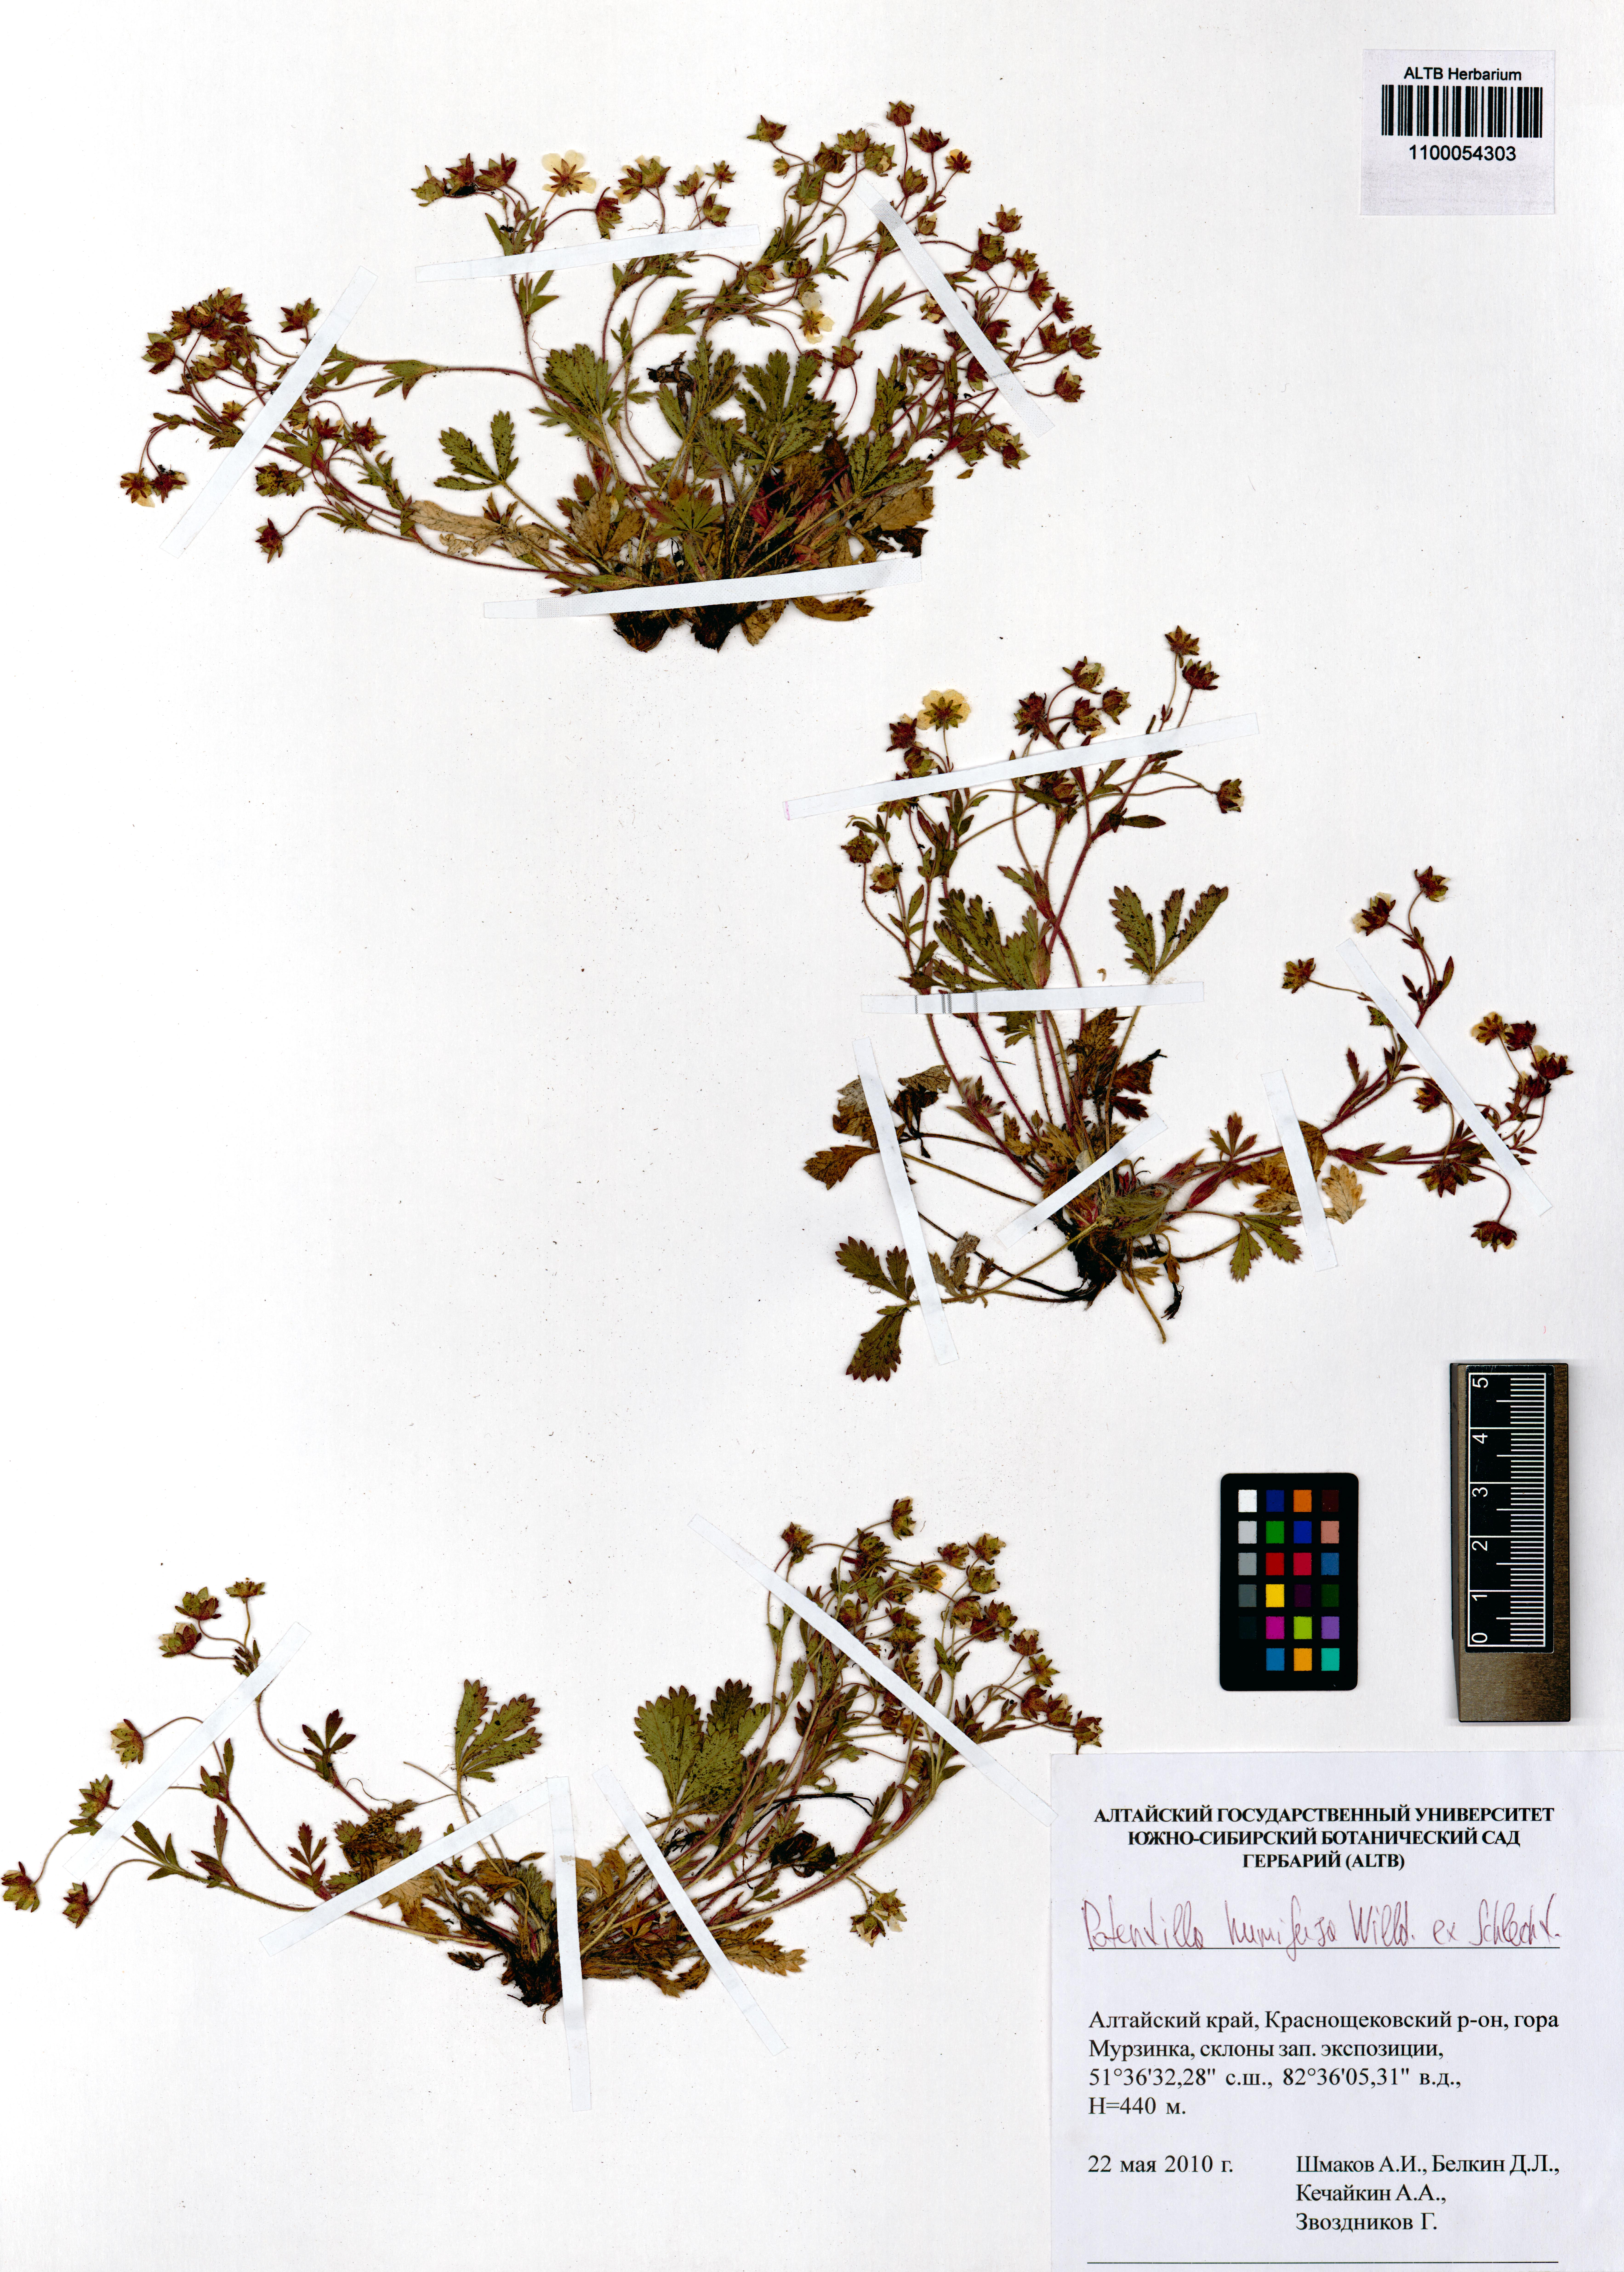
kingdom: Plantae
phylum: Tracheophyta
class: Magnoliopsida
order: Rosales
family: Rosaceae
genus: Potentilla
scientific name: Potentilla humifusa
